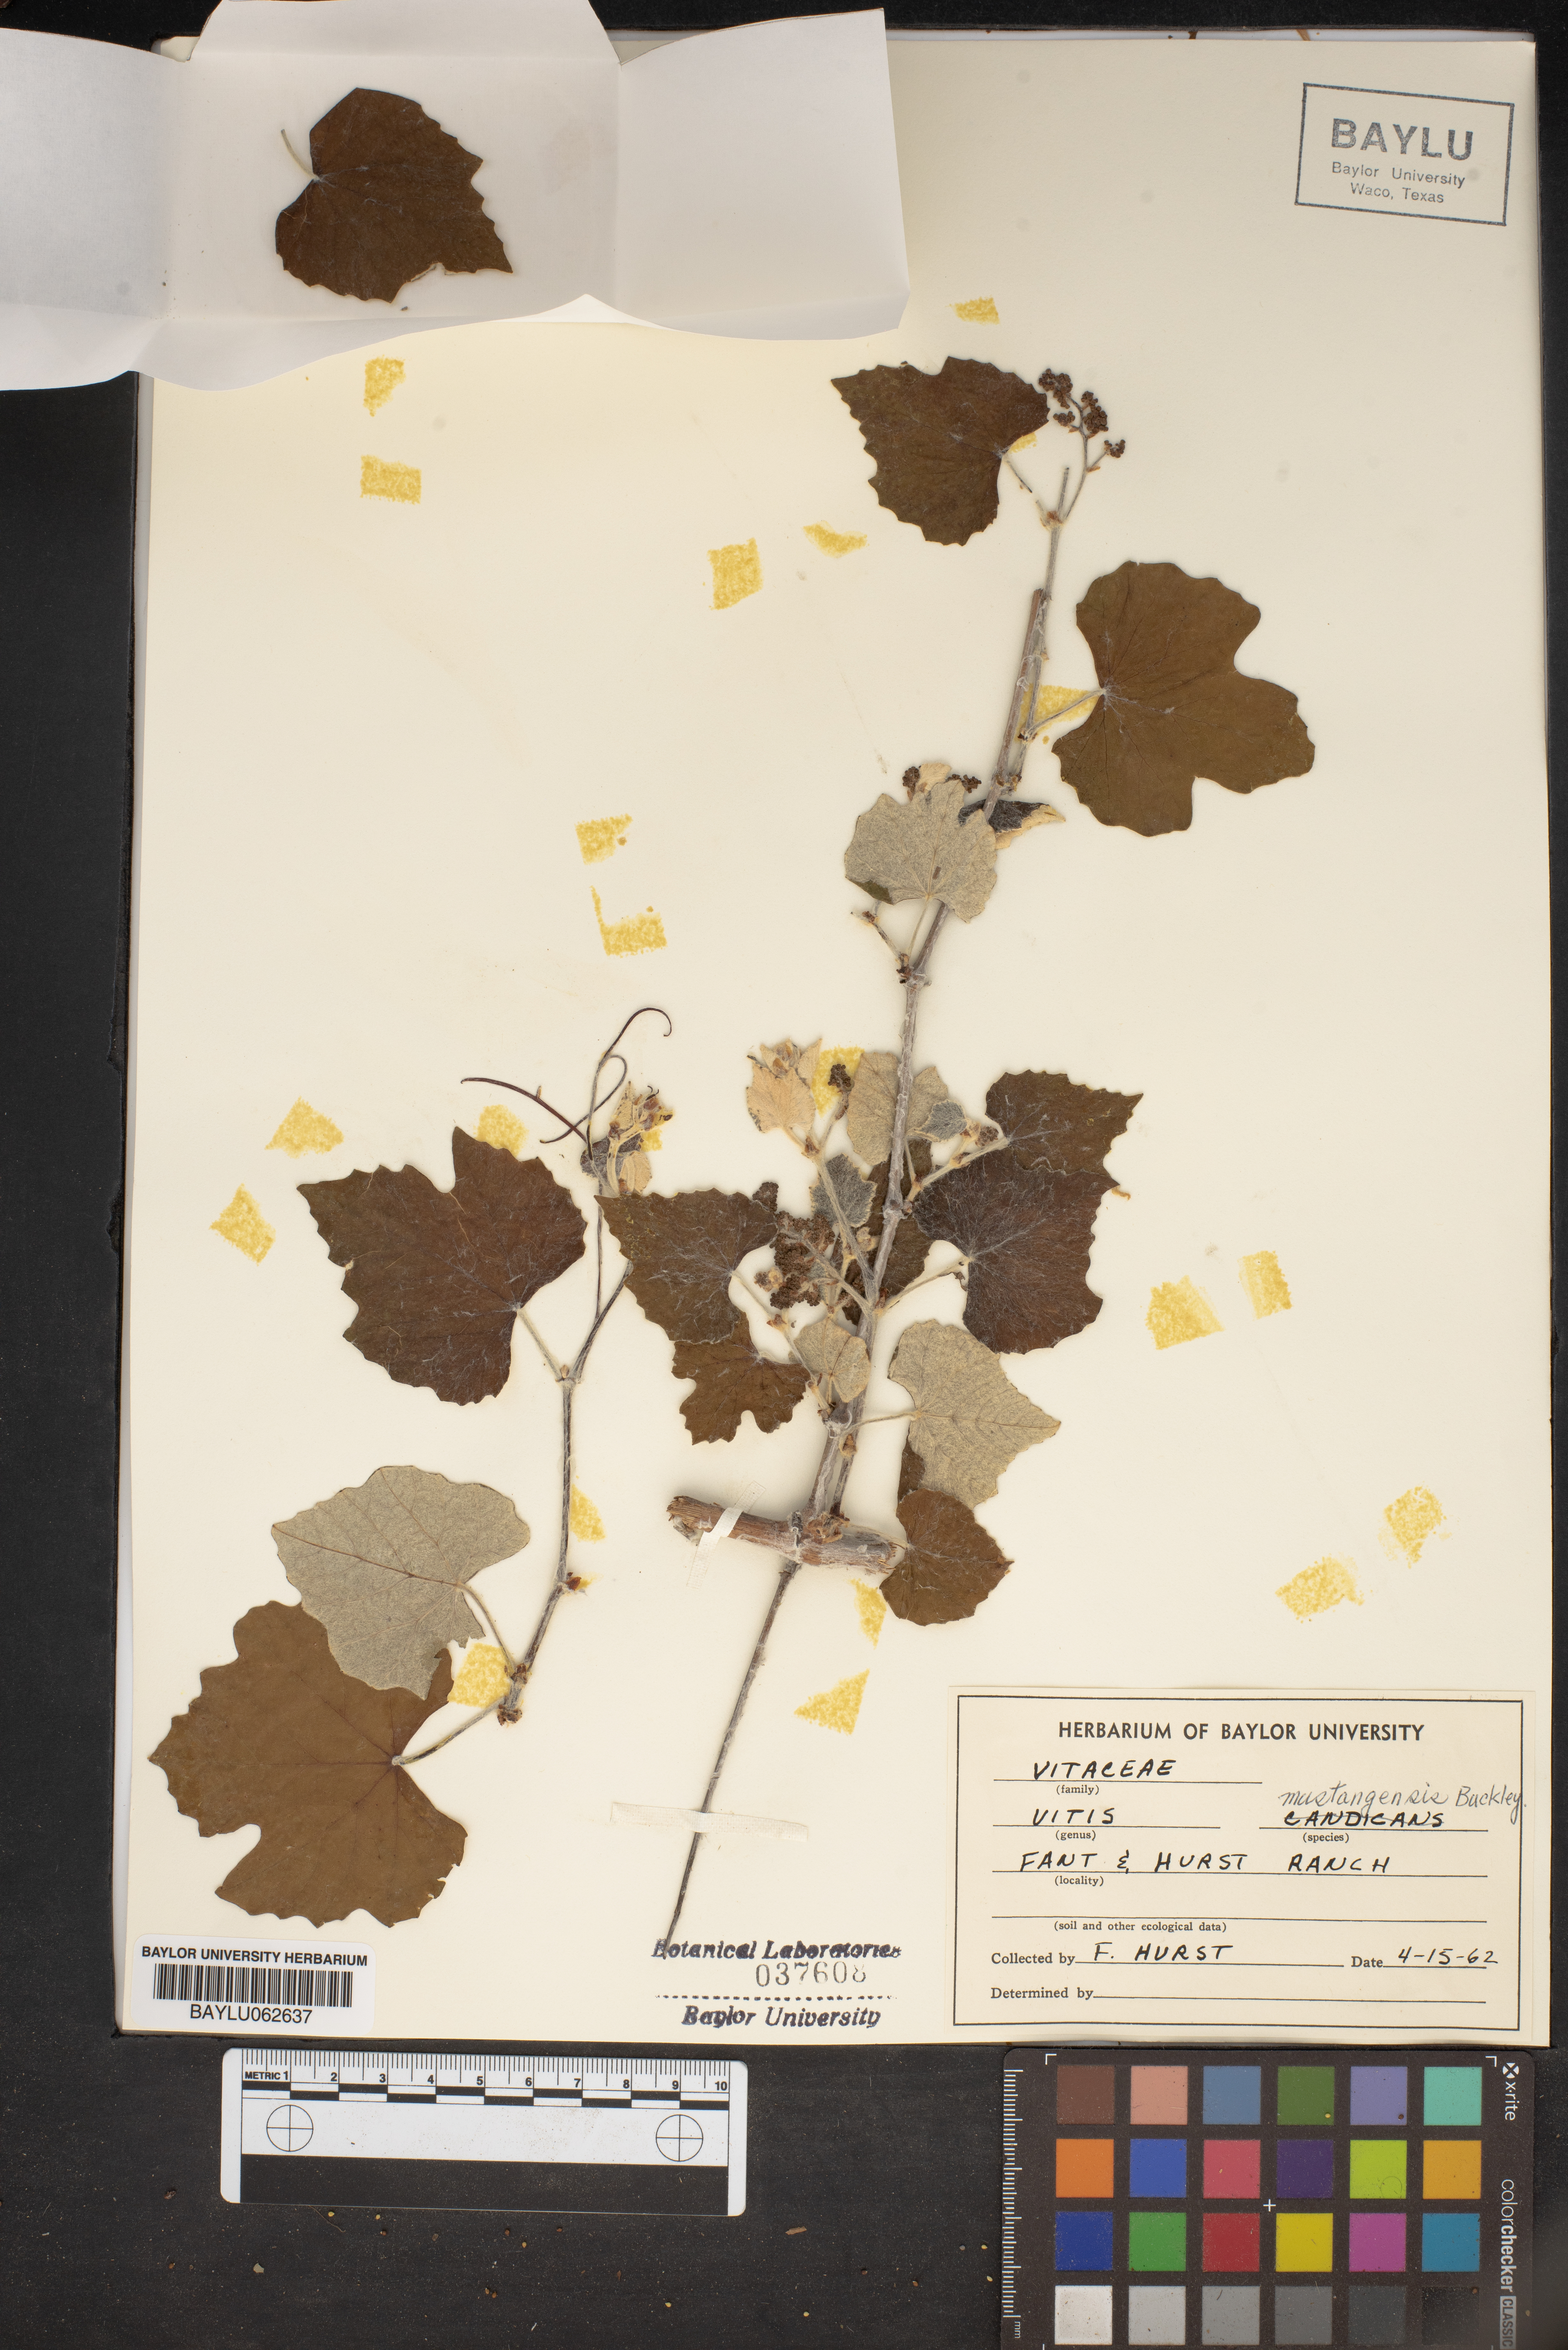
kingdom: Plantae
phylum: Tracheophyta
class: Magnoliopsida
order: Vitales
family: Vitaceae
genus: Vitis
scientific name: Vitis mustangensis
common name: Mustang grape
